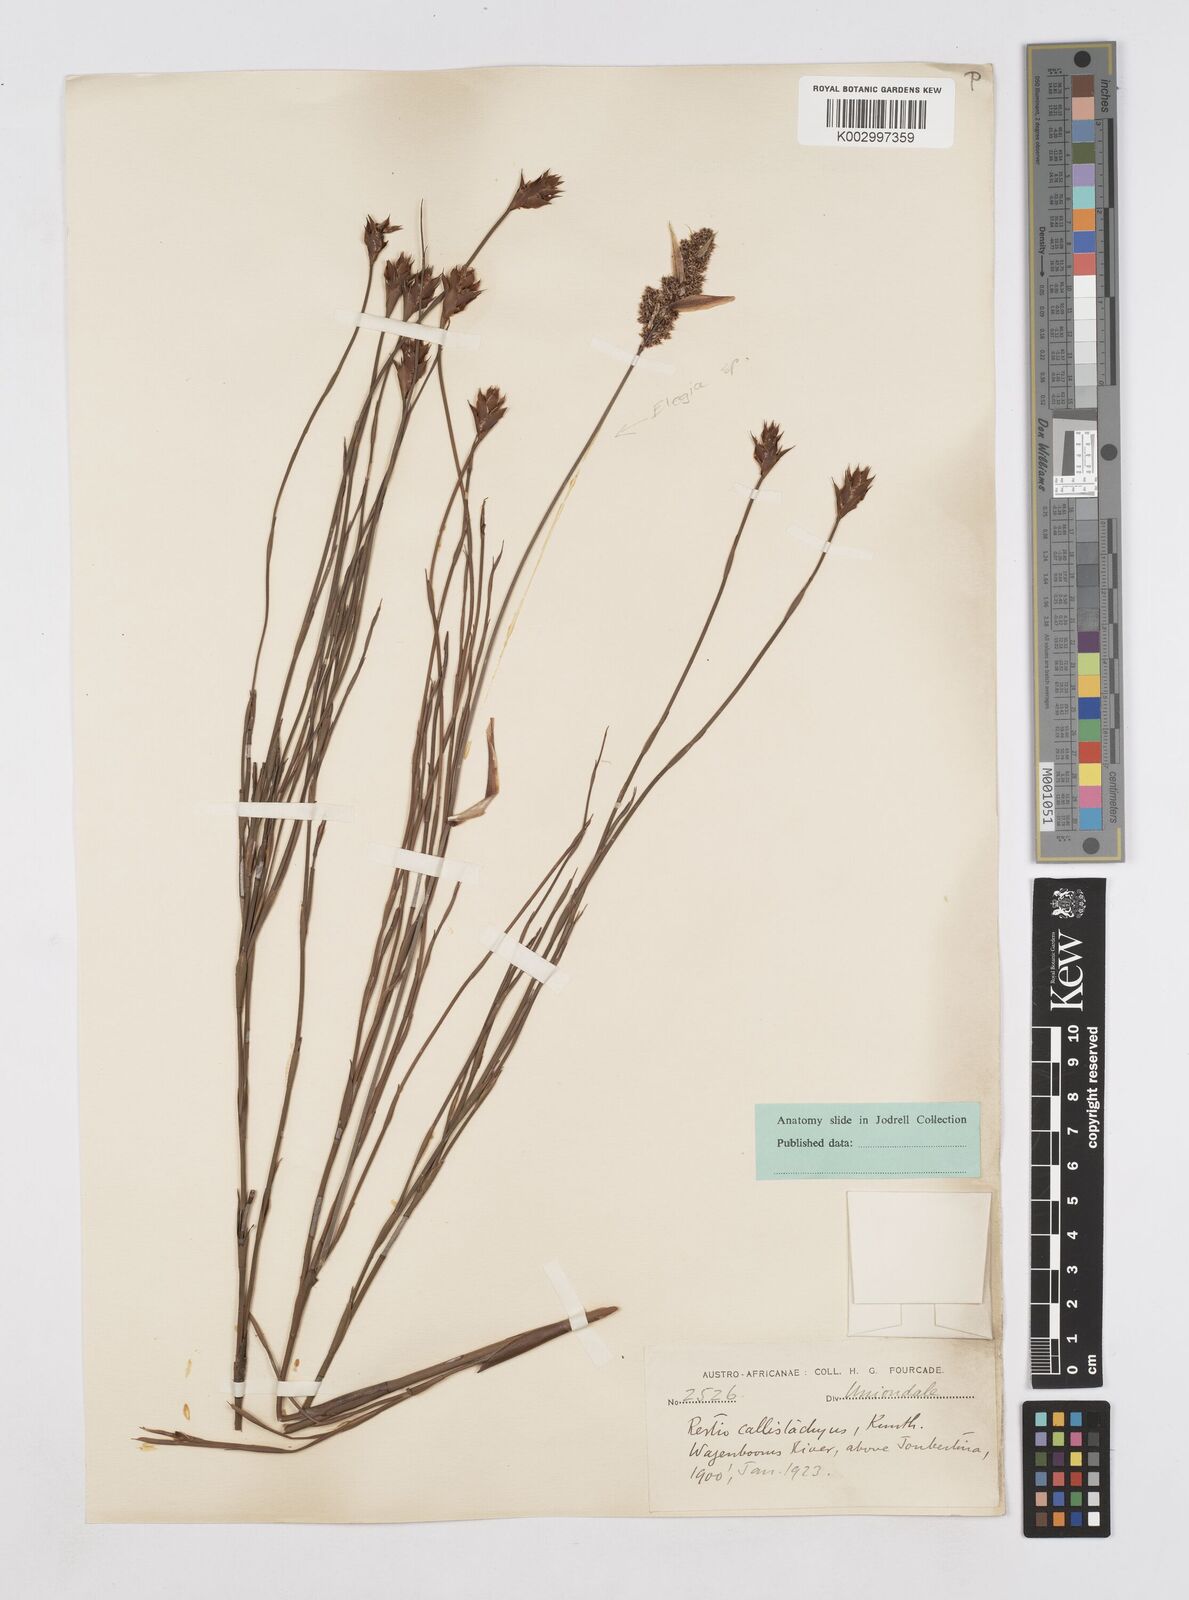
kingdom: Plantae
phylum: Tracheophyta
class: Liliopsida
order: Poales
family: Restionaceae
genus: Platycaulos
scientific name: Platycaulos callistachyus
